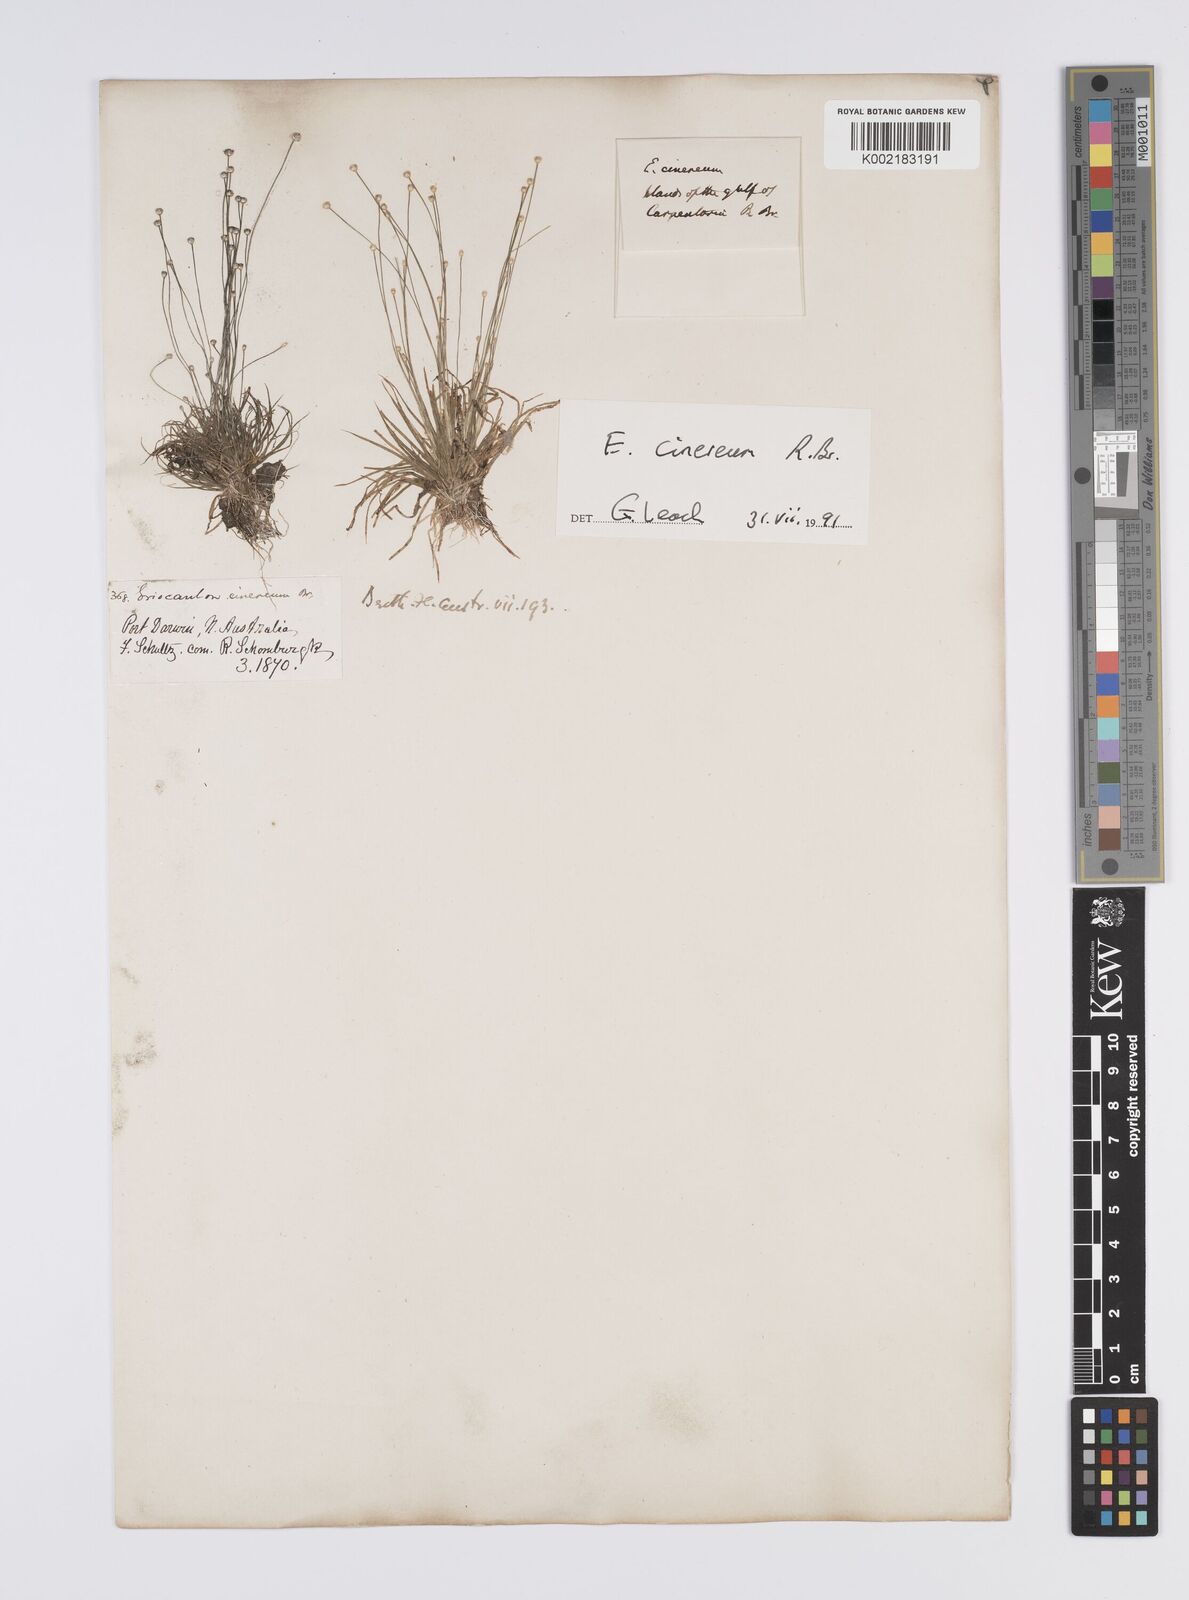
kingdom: Plantae
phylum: Tracheophyta
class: Liliopsida
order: Poales
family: Eriocaulaceae
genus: Eriocaulon
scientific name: Eriocaulon cinereum
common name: Ashy pipewort
